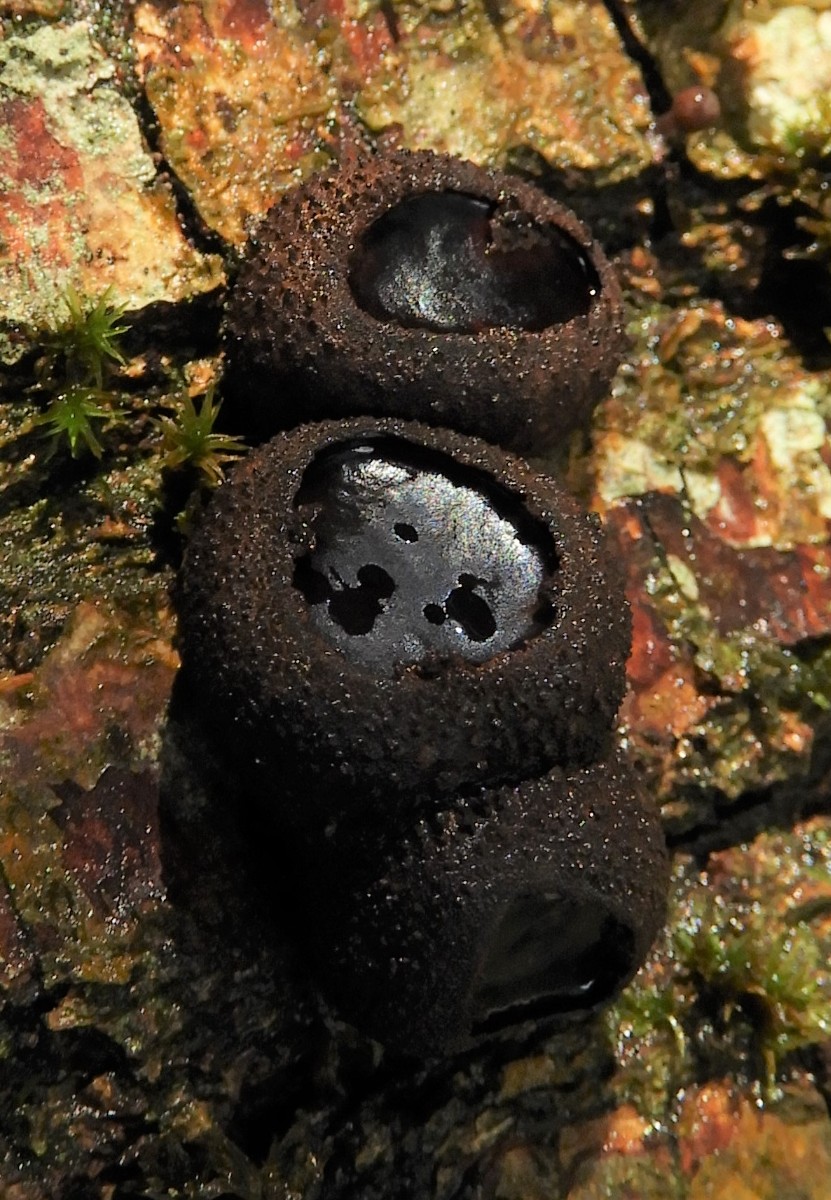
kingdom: Fungi
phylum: Ascomycota
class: Leotiomycetes
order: Phacidiales
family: Phacidiaceae
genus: Bulgaria
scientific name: Bulgaria inquinans
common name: afsmittende topsvamp
